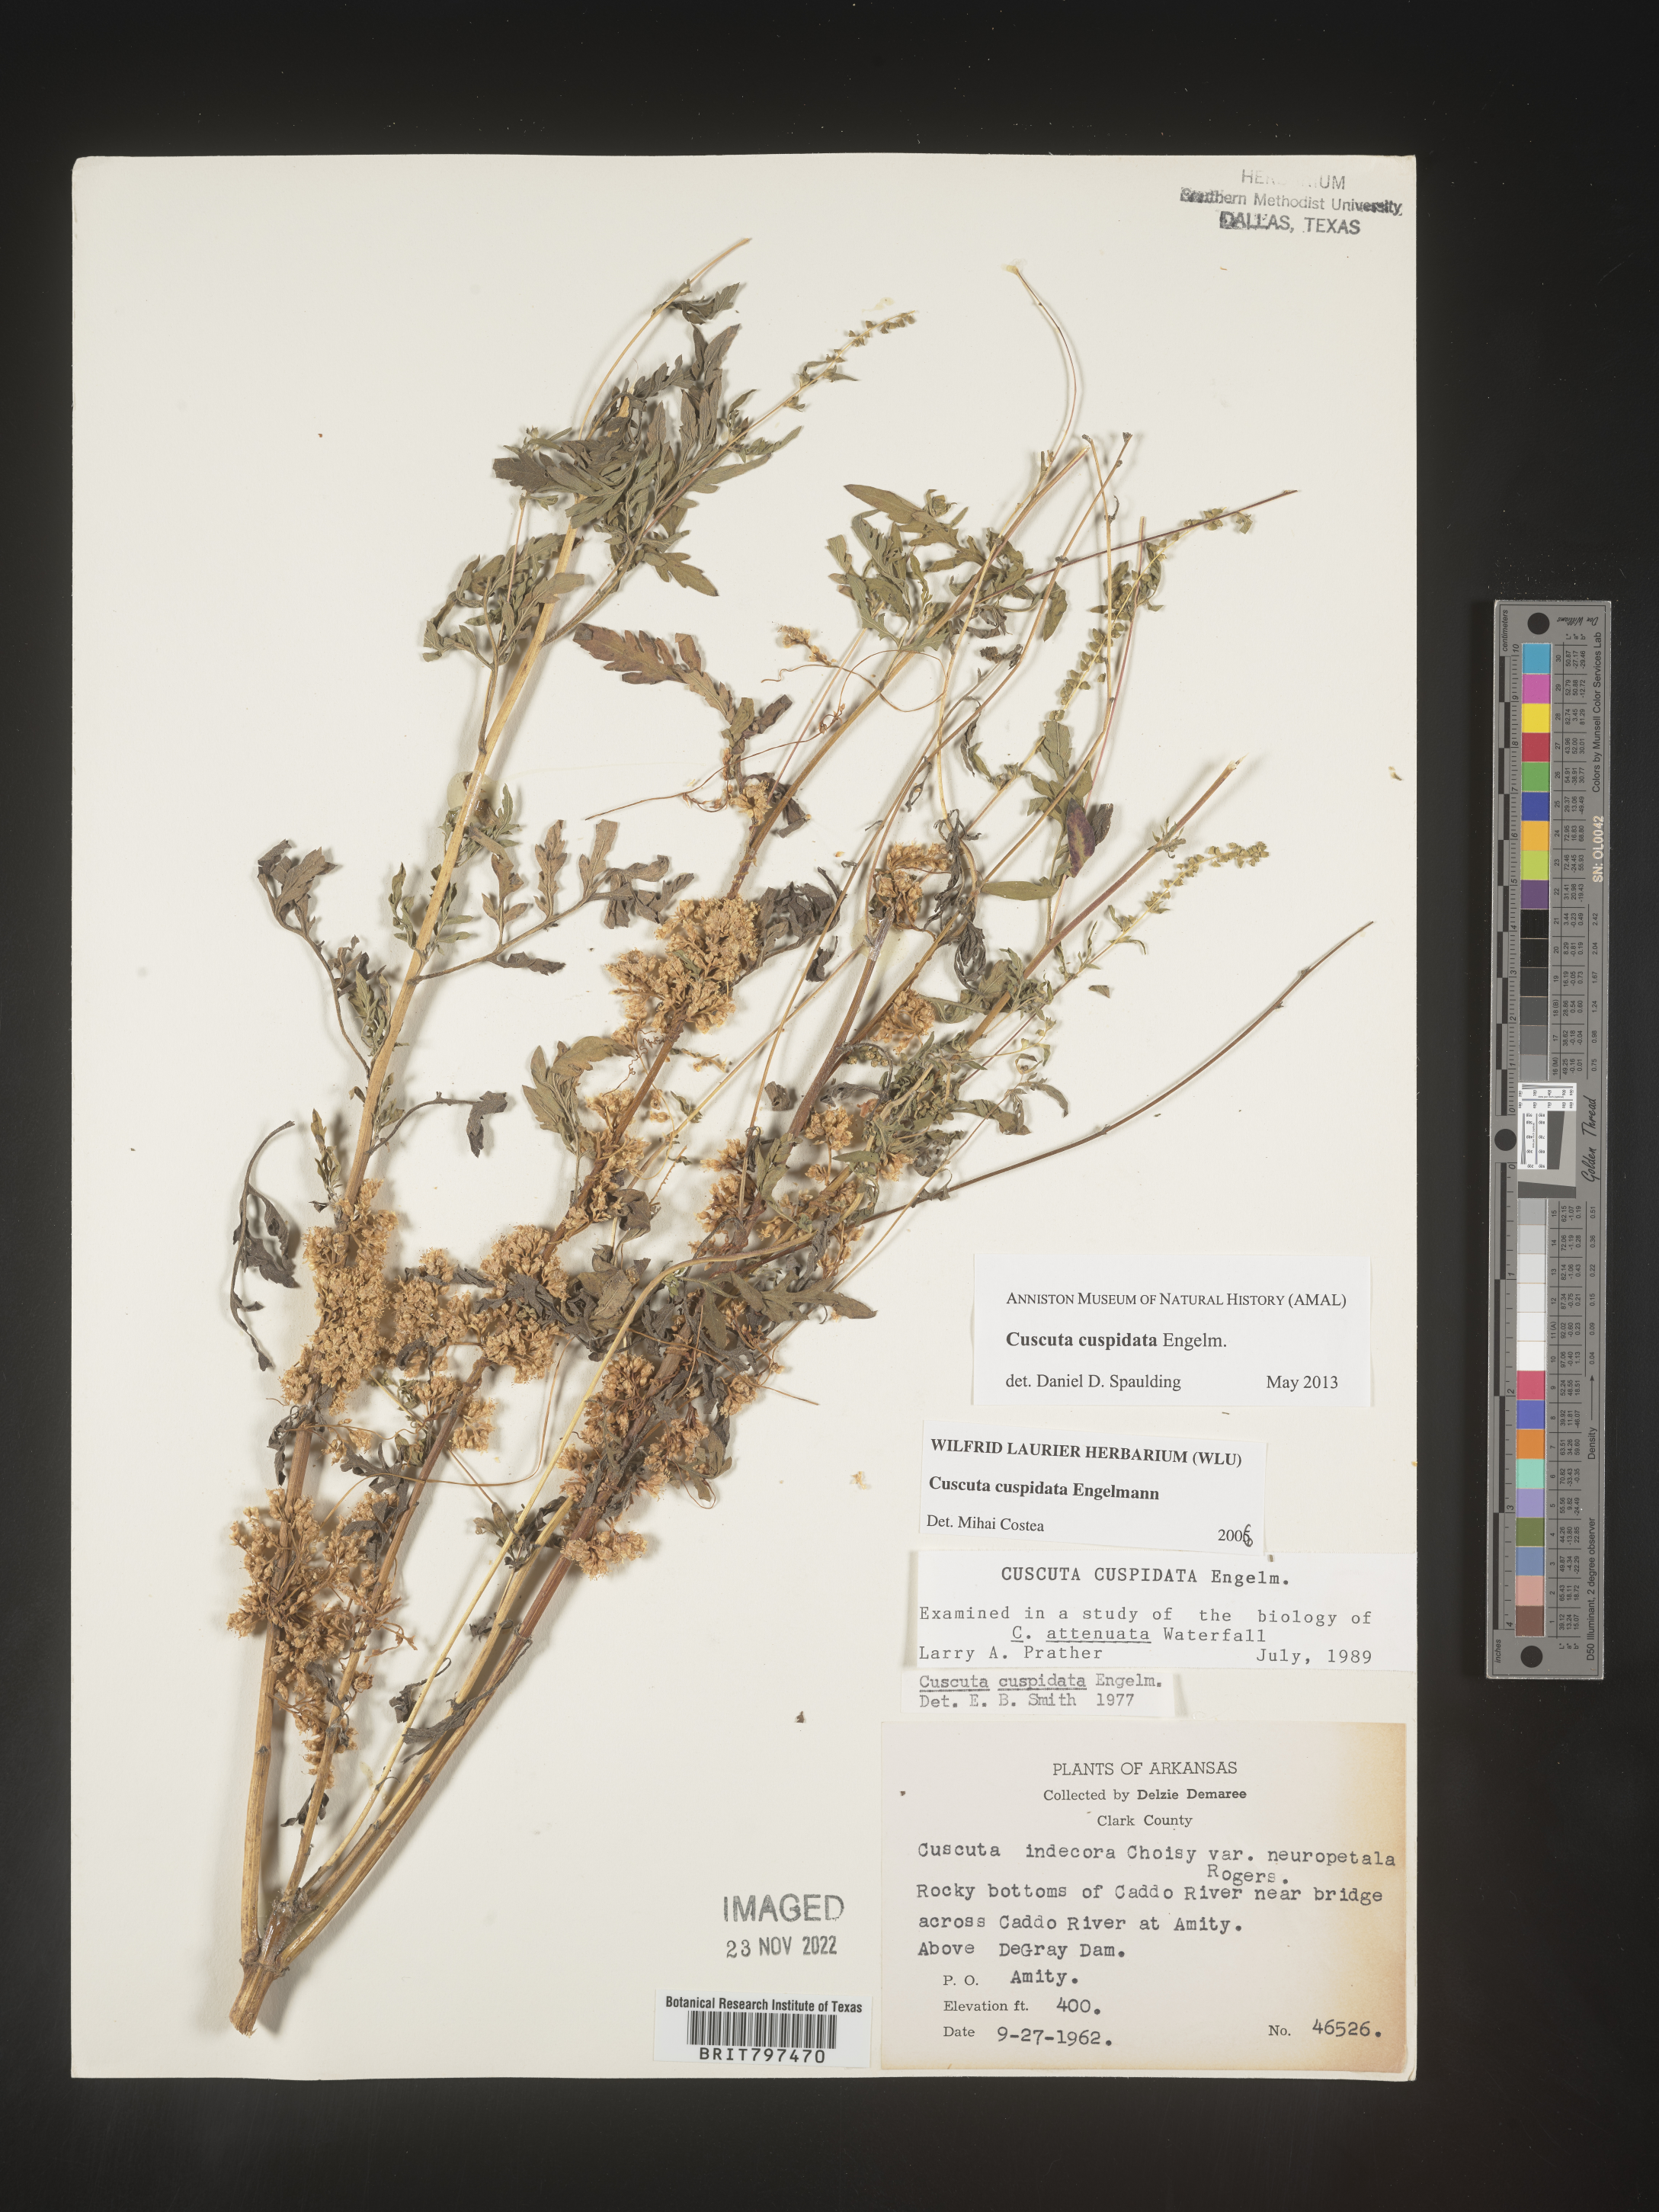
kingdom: Plantae
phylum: Tracheophyta
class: Magnoliopsida
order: Solanales
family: Convolvulaceae
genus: Cuscuta
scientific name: Cuscuta cuspidata
